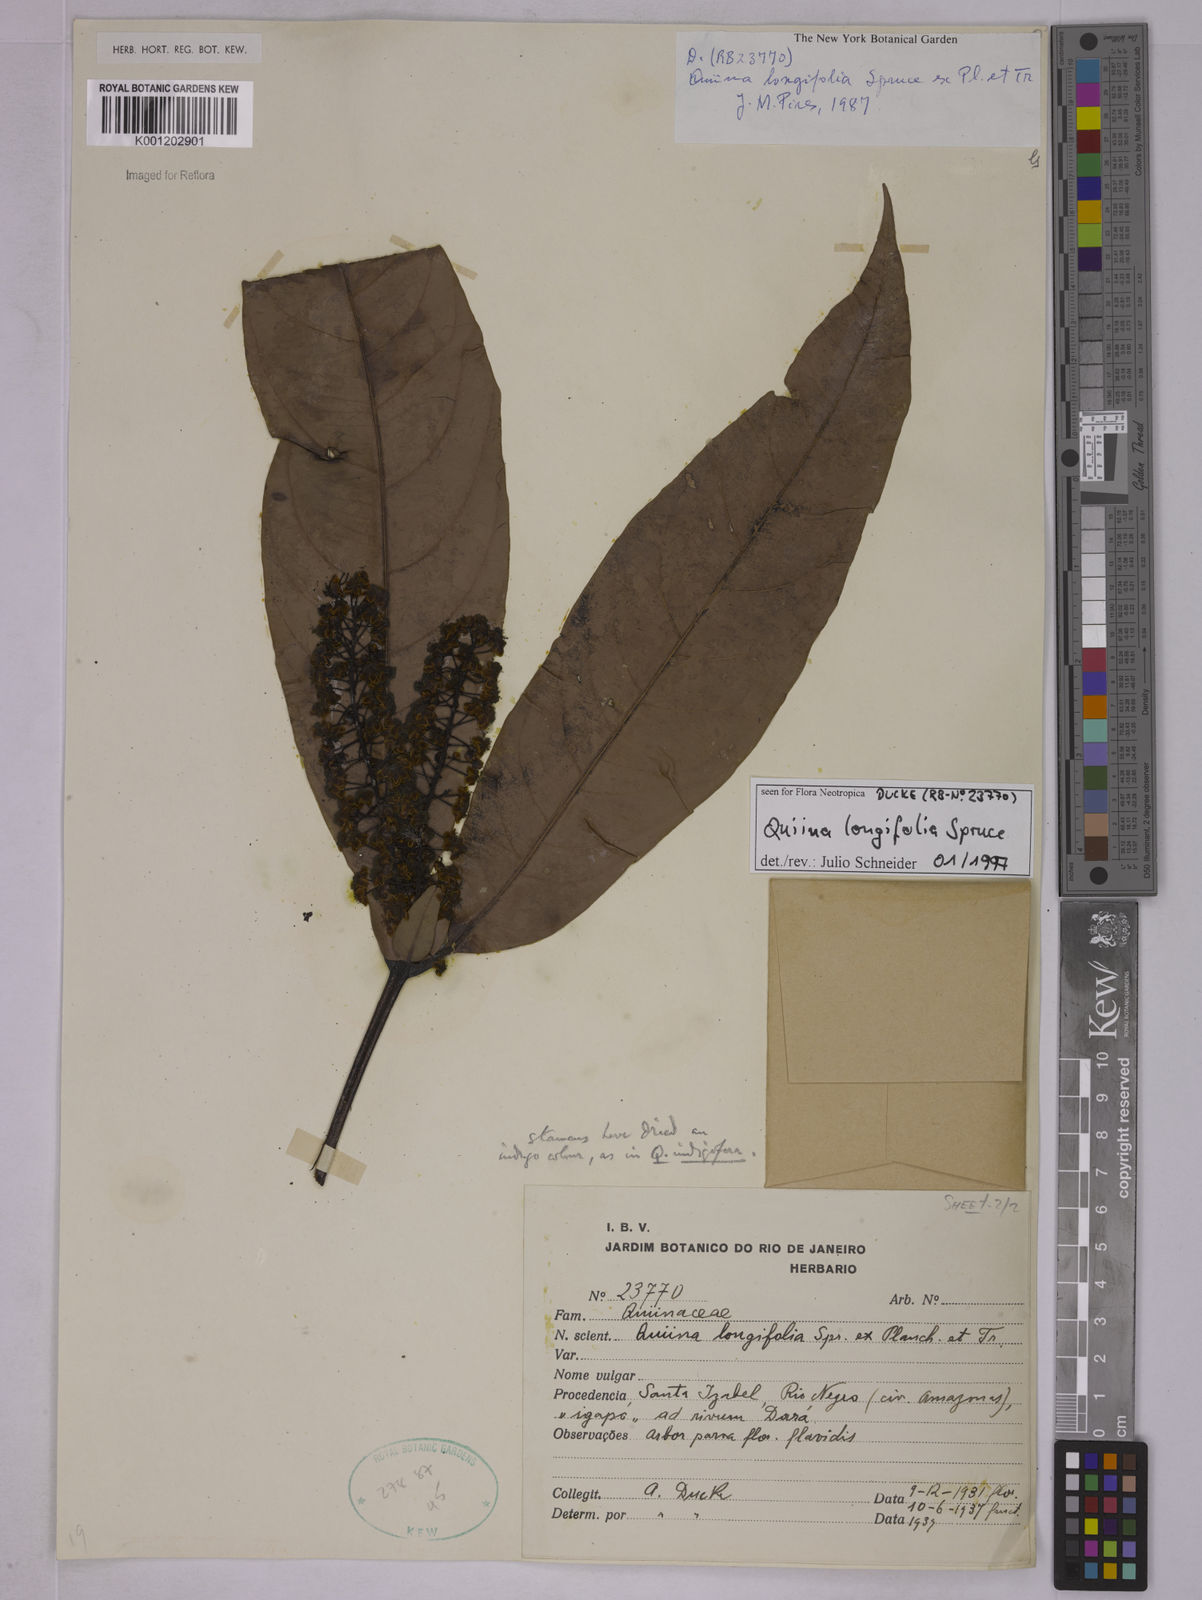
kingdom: Plantae
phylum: Tracheophyta
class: Magnoliopsida
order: Malpighiales
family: Quiinaceae
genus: Quiina
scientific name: Quiina florida
